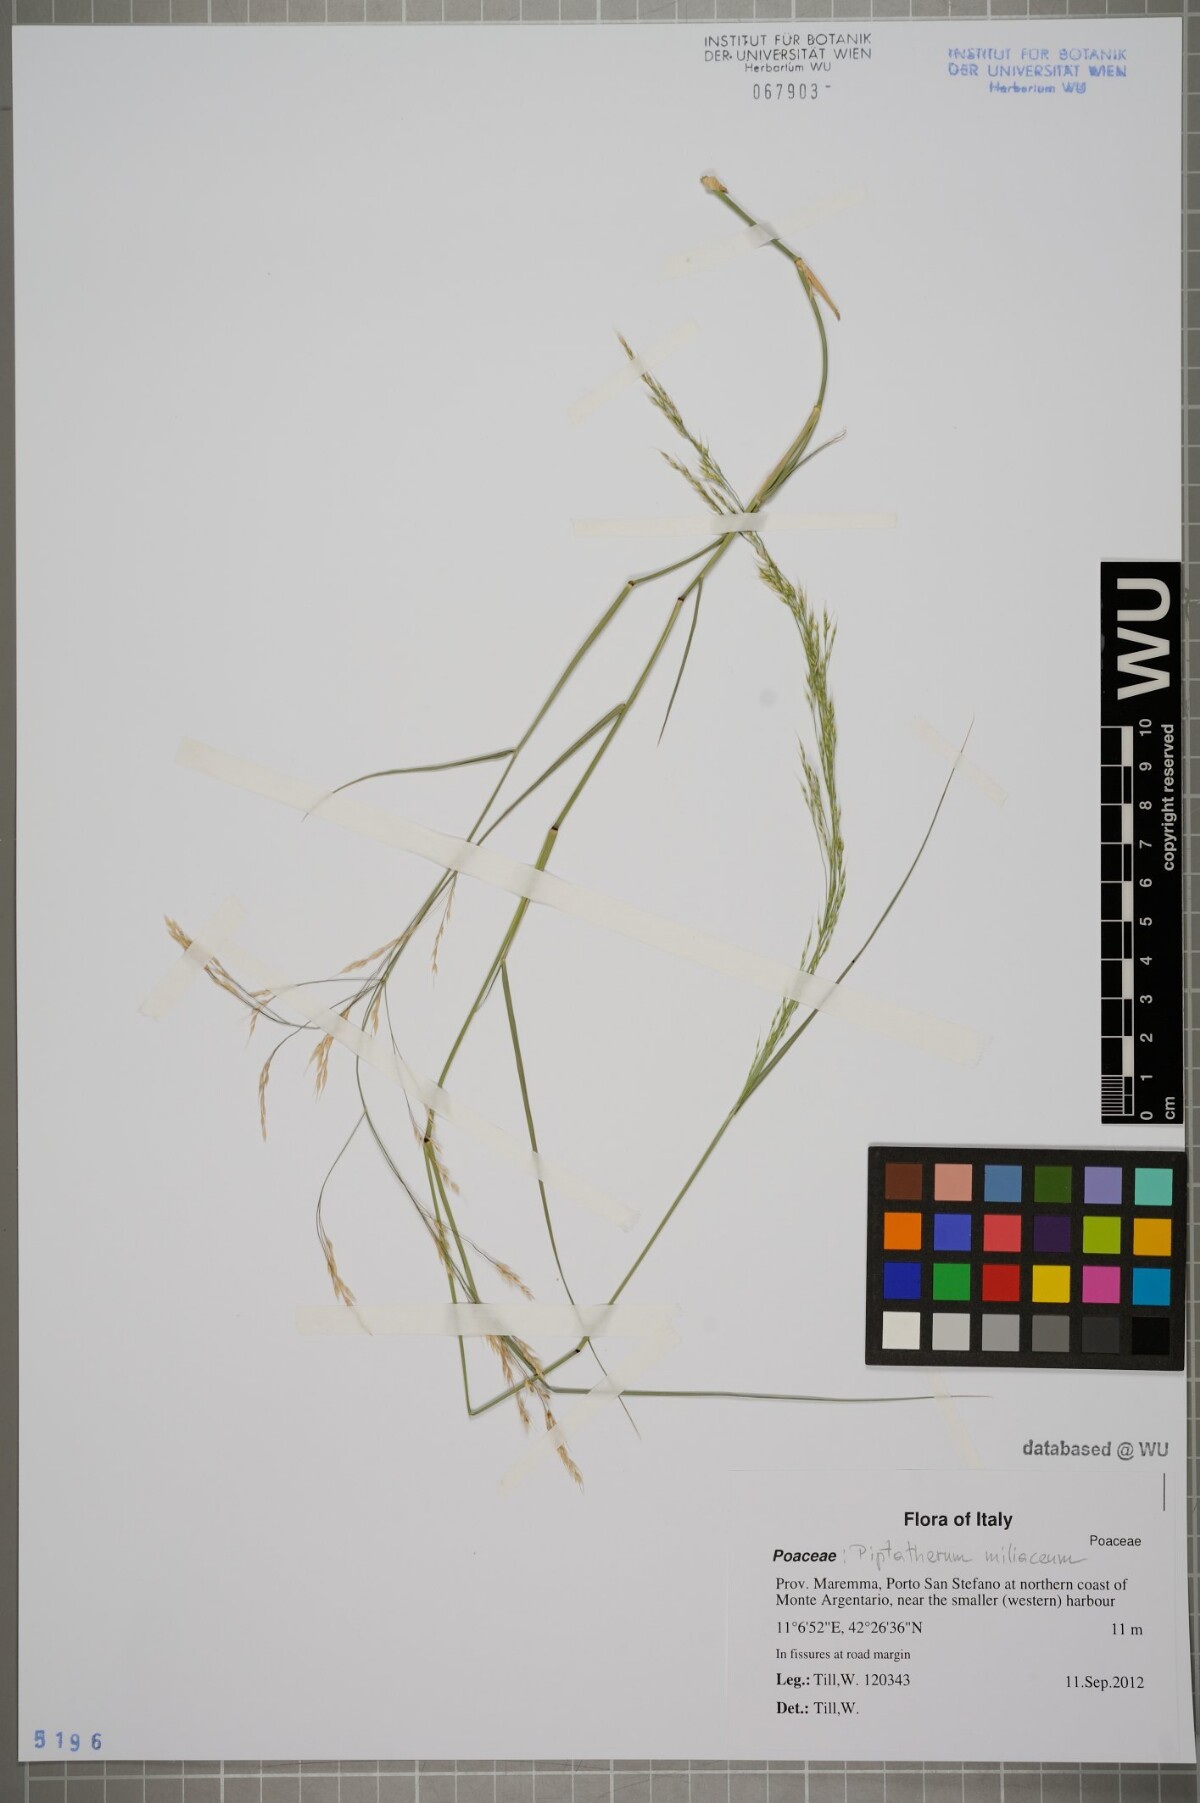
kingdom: Plantae
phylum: Tracheophyta
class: Liliopsida
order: Poales
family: Poaceae
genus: Oloptum
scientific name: Oloptum miliaceum
